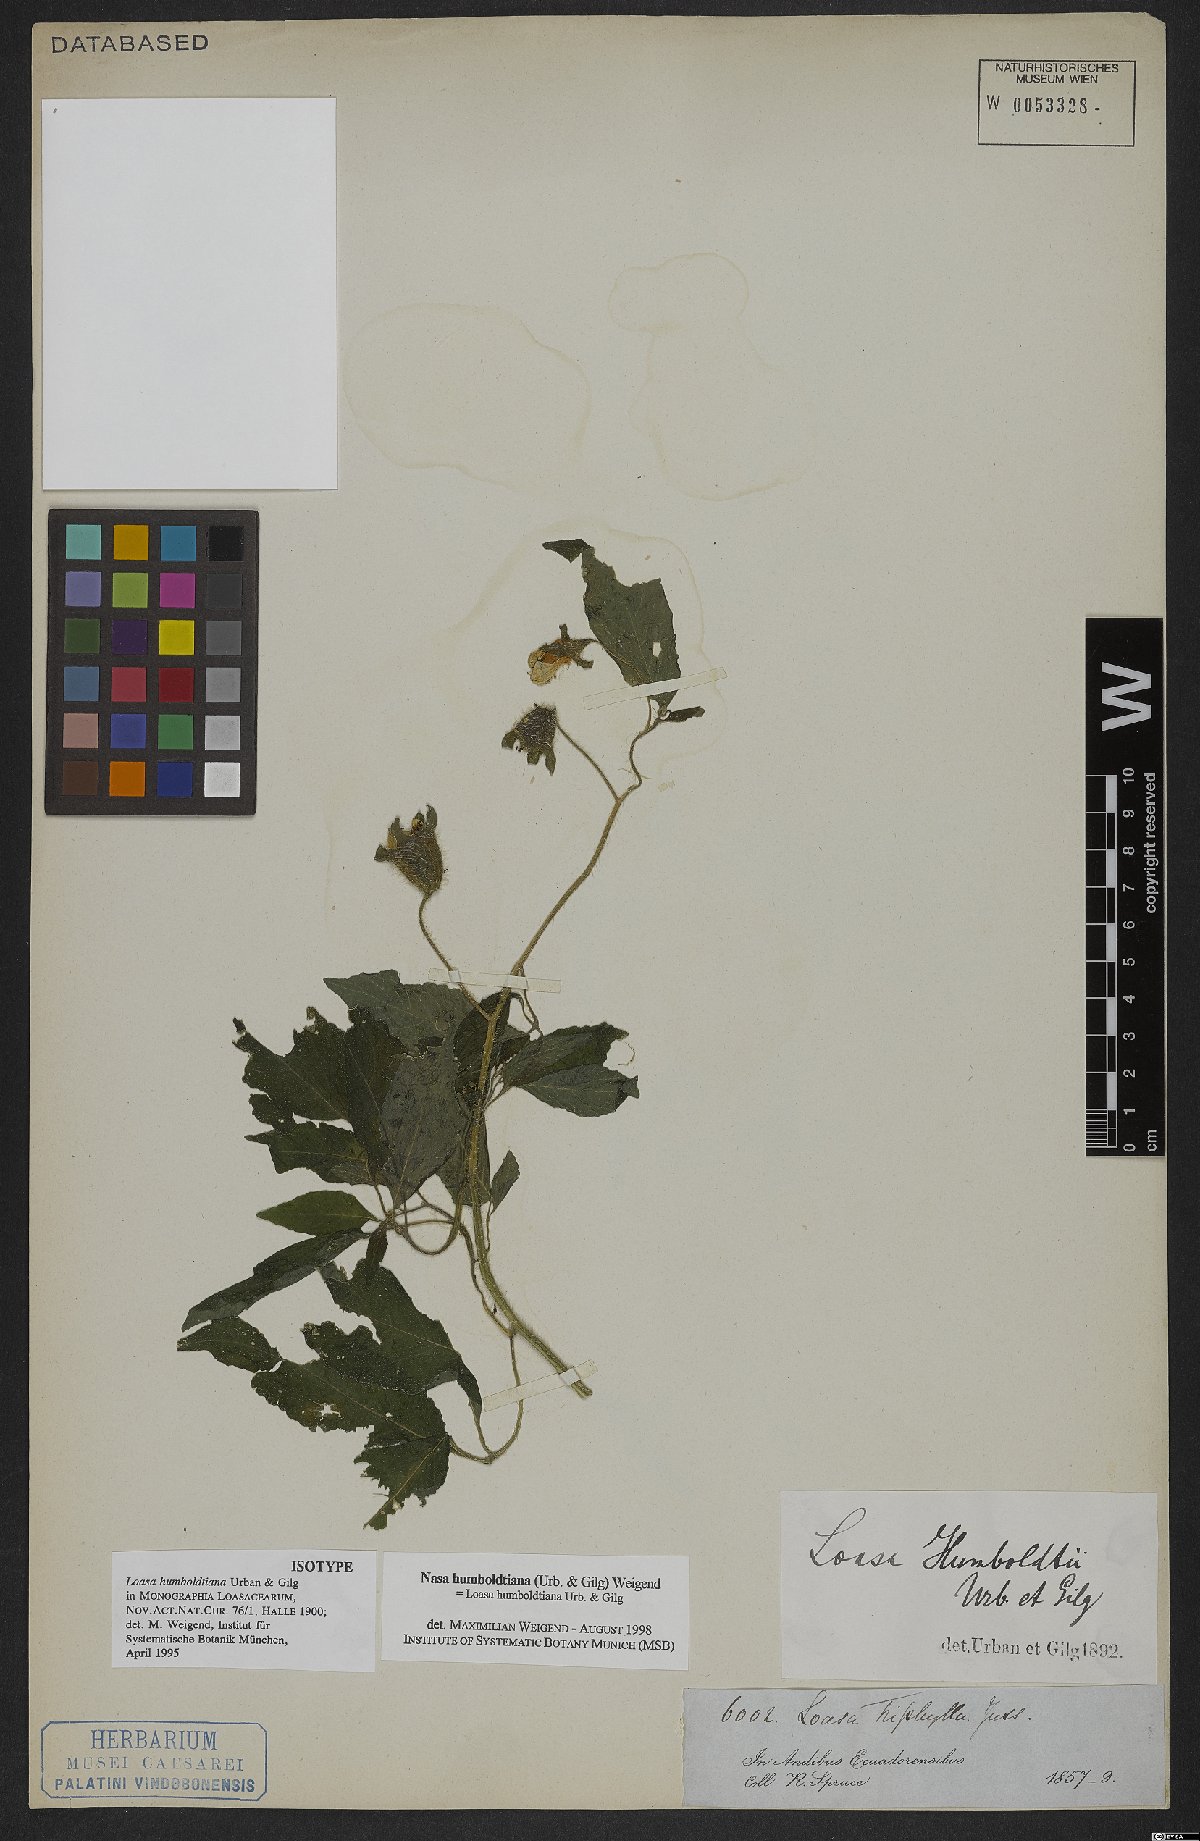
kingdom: Plantae
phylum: Tracheophyta
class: Magnoliopsida
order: Cornales
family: Loasaceae
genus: Nasa
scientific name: Nasa humboldtiana
